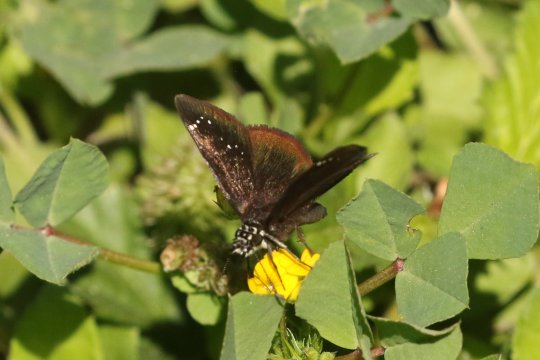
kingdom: Animalia
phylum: Arthropoda
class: Insecta
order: Lepidoptera
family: Hesperiidae
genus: Pholisora
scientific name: Pholisora catullus
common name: Common Sootywing
